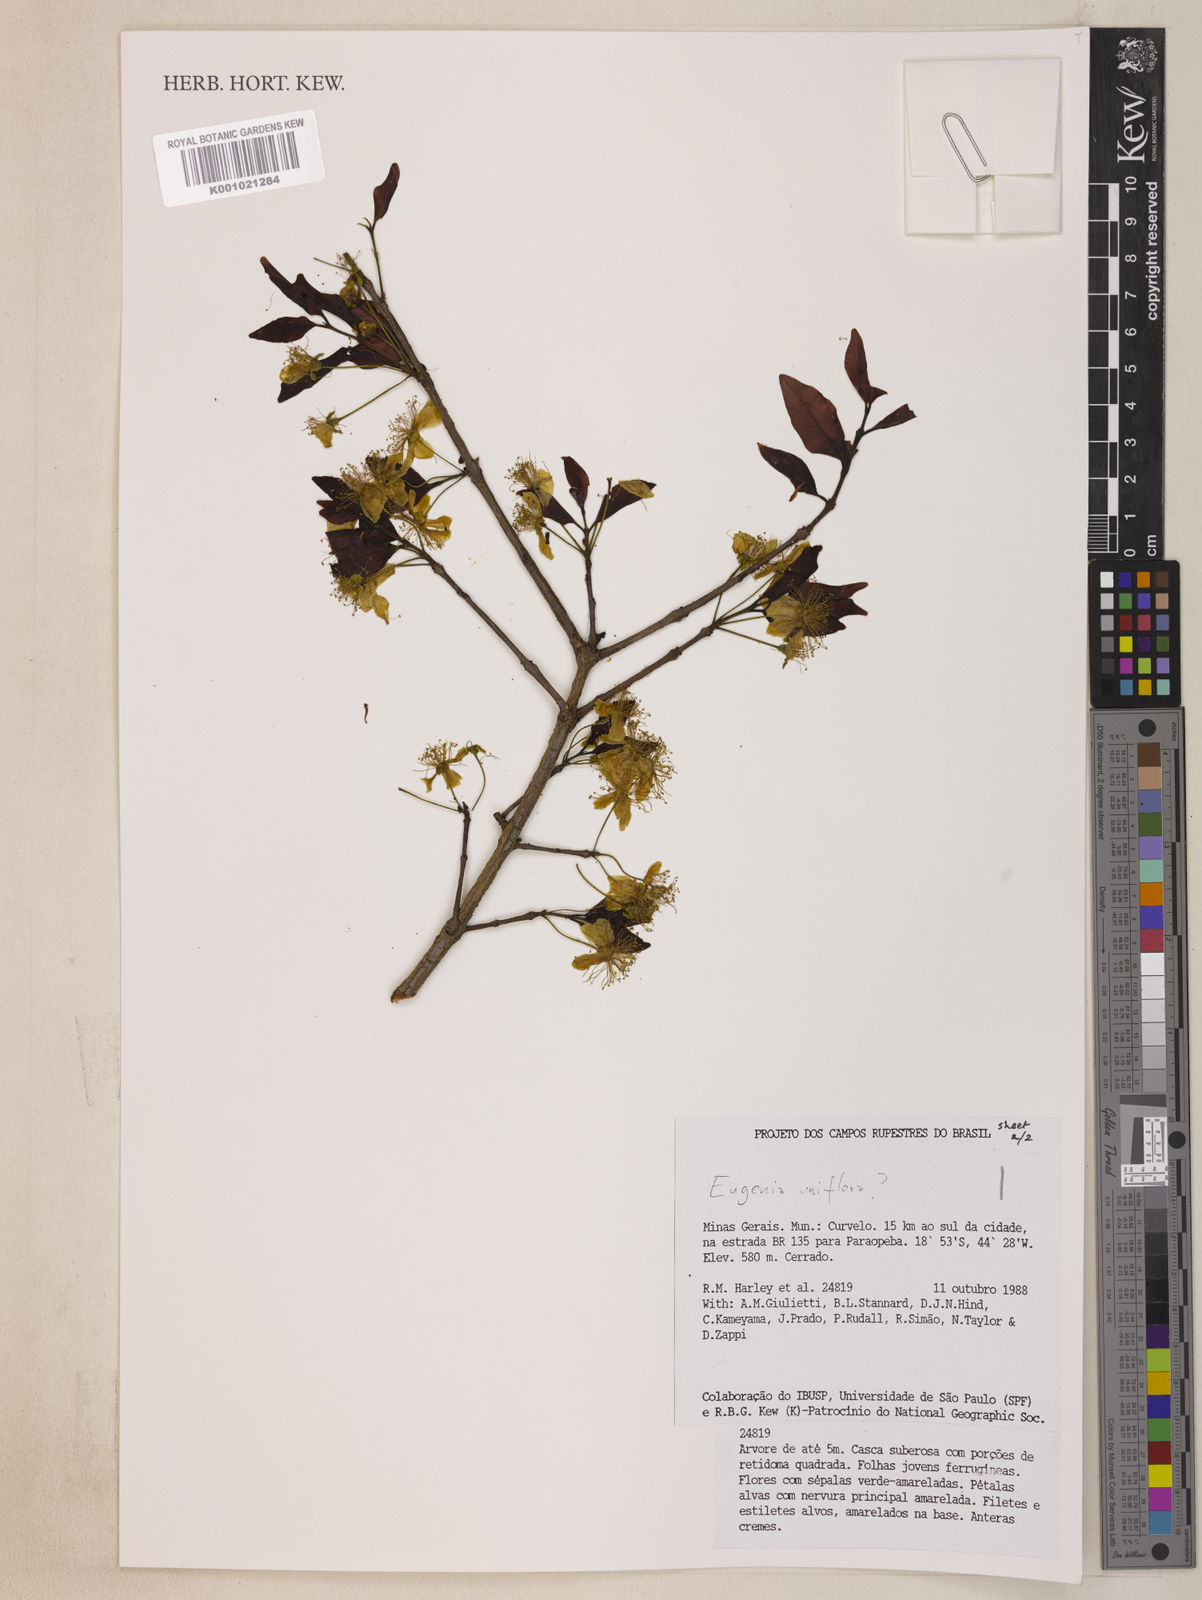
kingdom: Plantae
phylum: Tracheophyta
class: Magnoliopsida
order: Myrtales
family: Myrtaceae
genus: Eugenia
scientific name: Eugenia uniflora
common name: Surinam cherry
